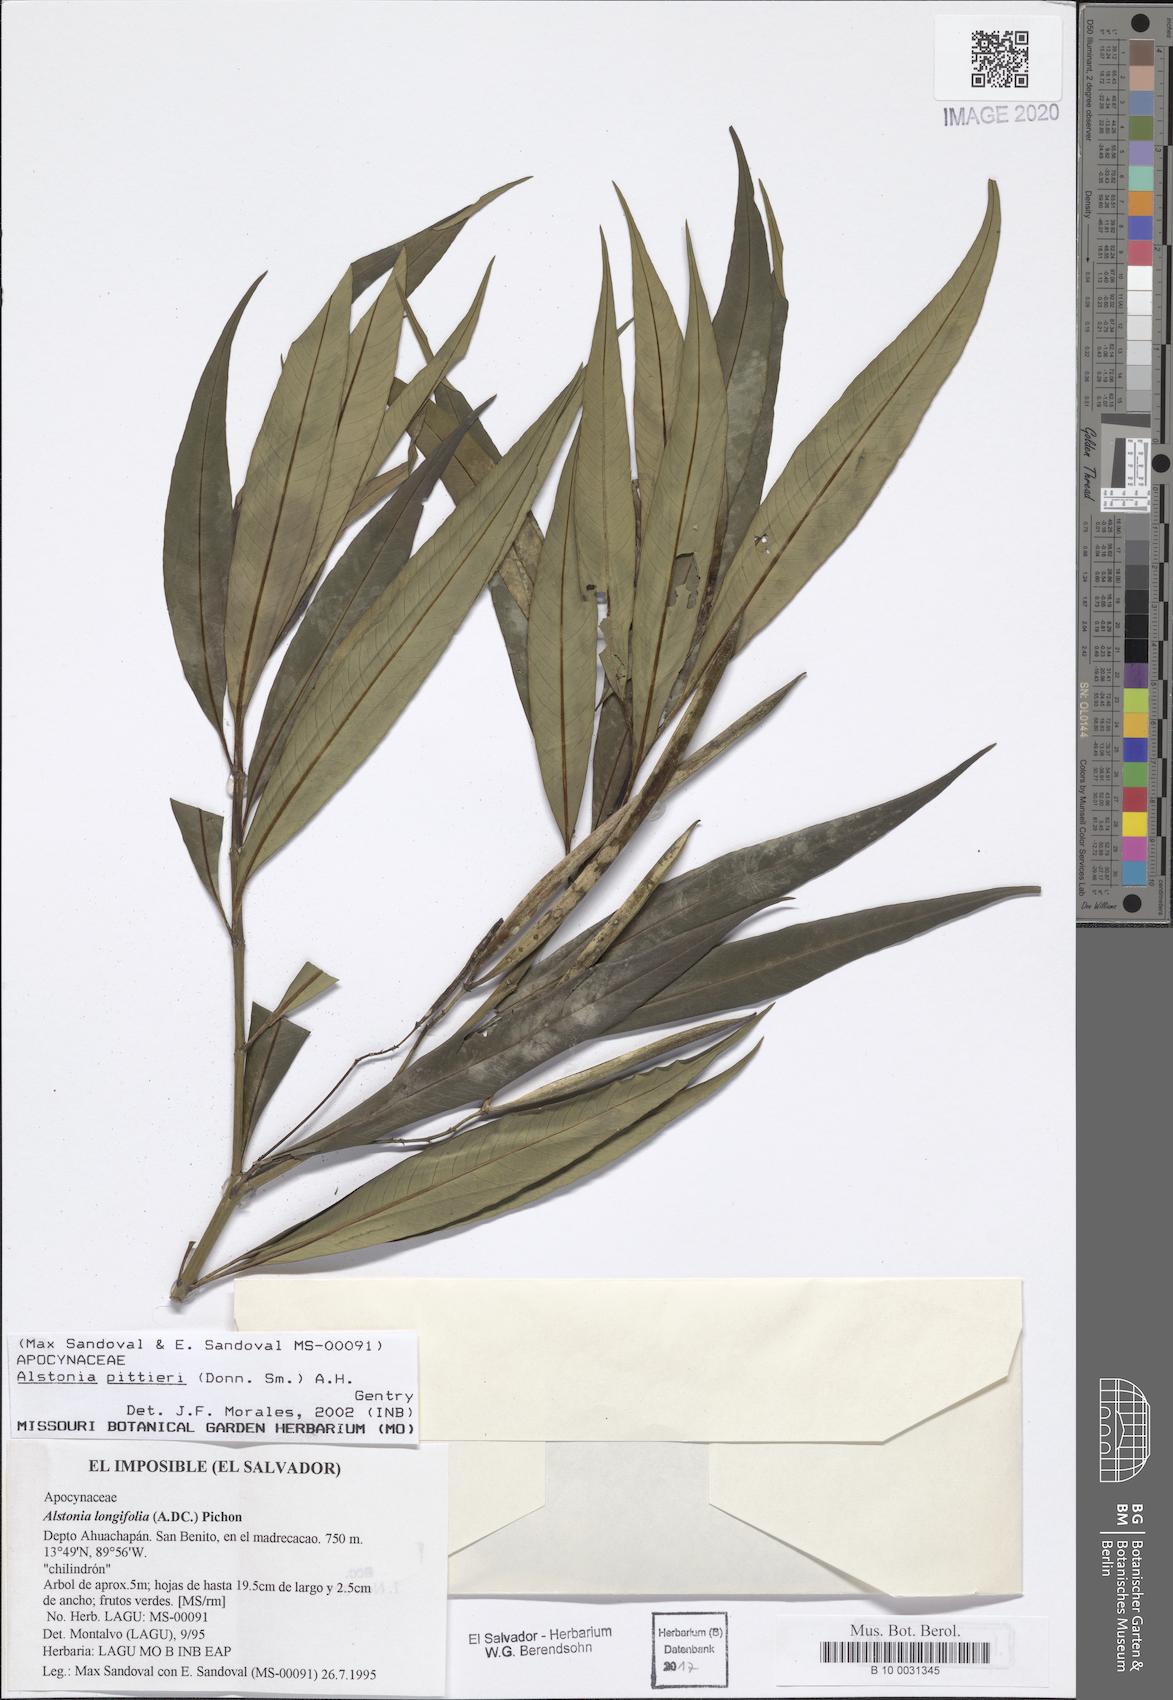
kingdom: Plantae
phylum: Tracheophyta
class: Magnoliopsida
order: Gentianales
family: Apocynaceae
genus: Tonduzia
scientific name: Tonduzia longifolia
